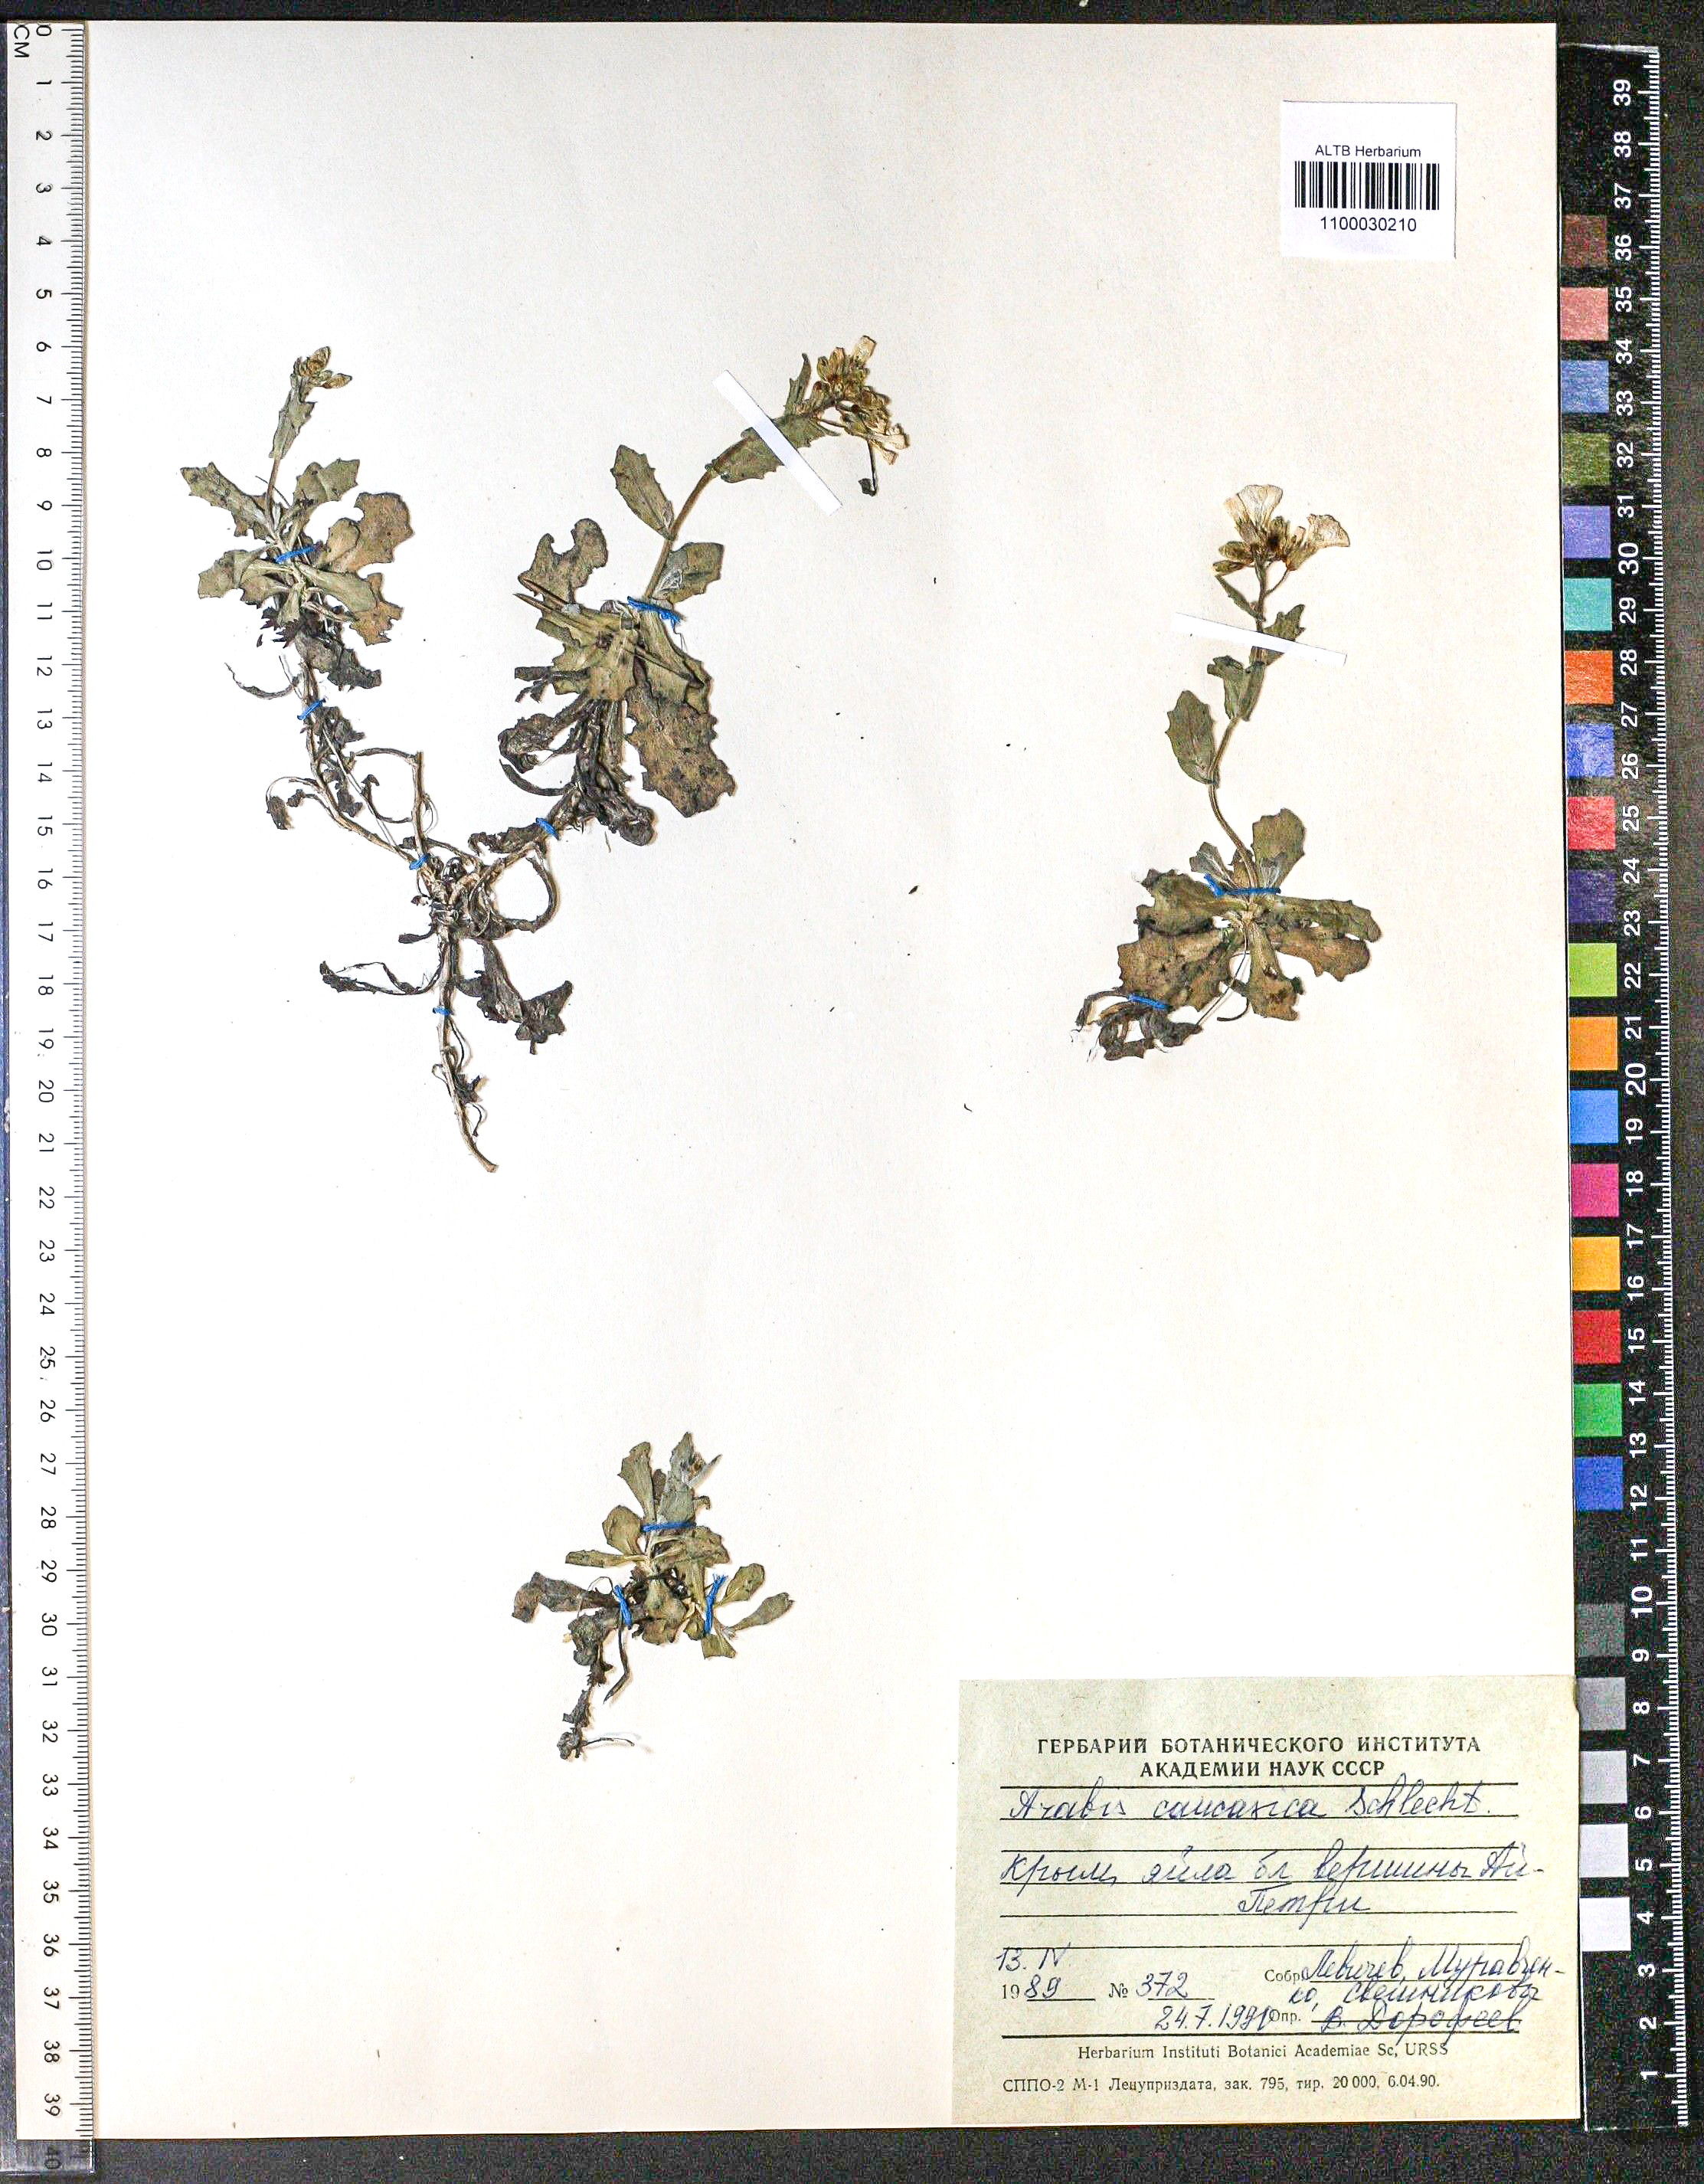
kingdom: Plantae
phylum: Tracheophyta
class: Magnoliopsida
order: Brassicales
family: Brassicaceae
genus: Arabis
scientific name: Arabis caucasica
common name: Gray rockcress
